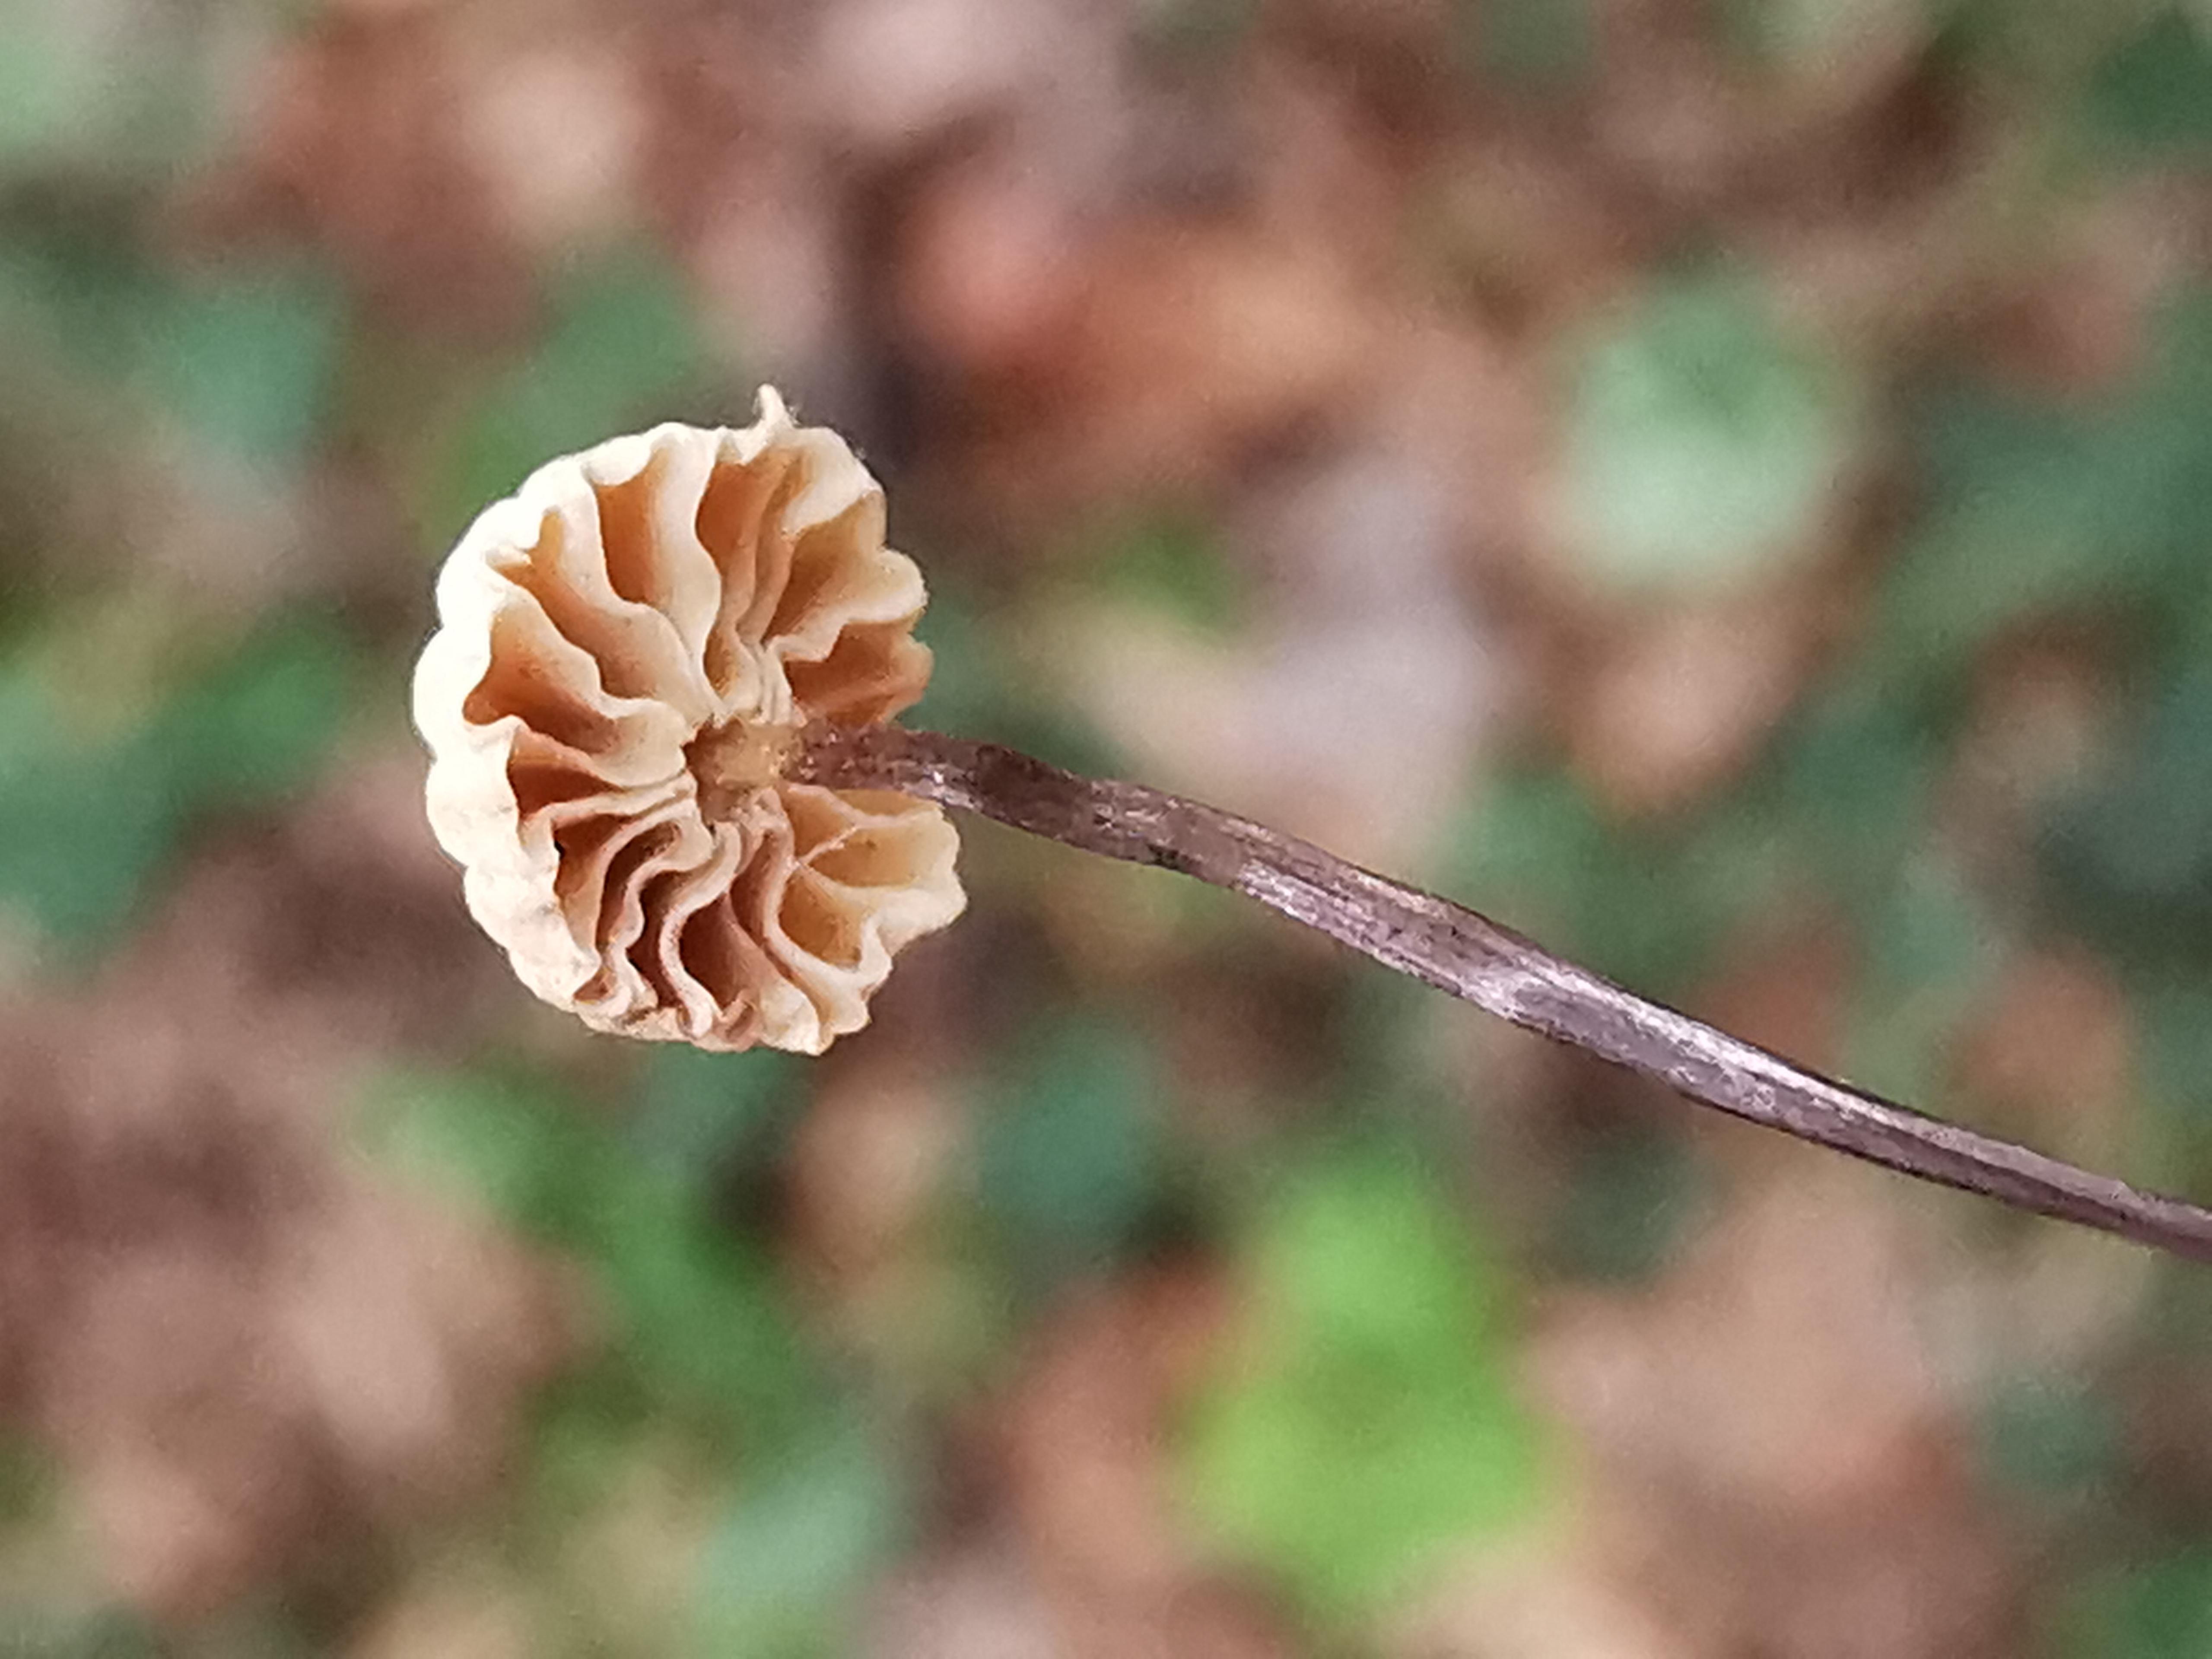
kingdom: Fungi
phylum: Basidiomycota
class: Agaricomycetes
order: Agaricales
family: Marasmiaceae
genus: Marasmius
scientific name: Marasmius rotula
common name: hjul-bruskhat
